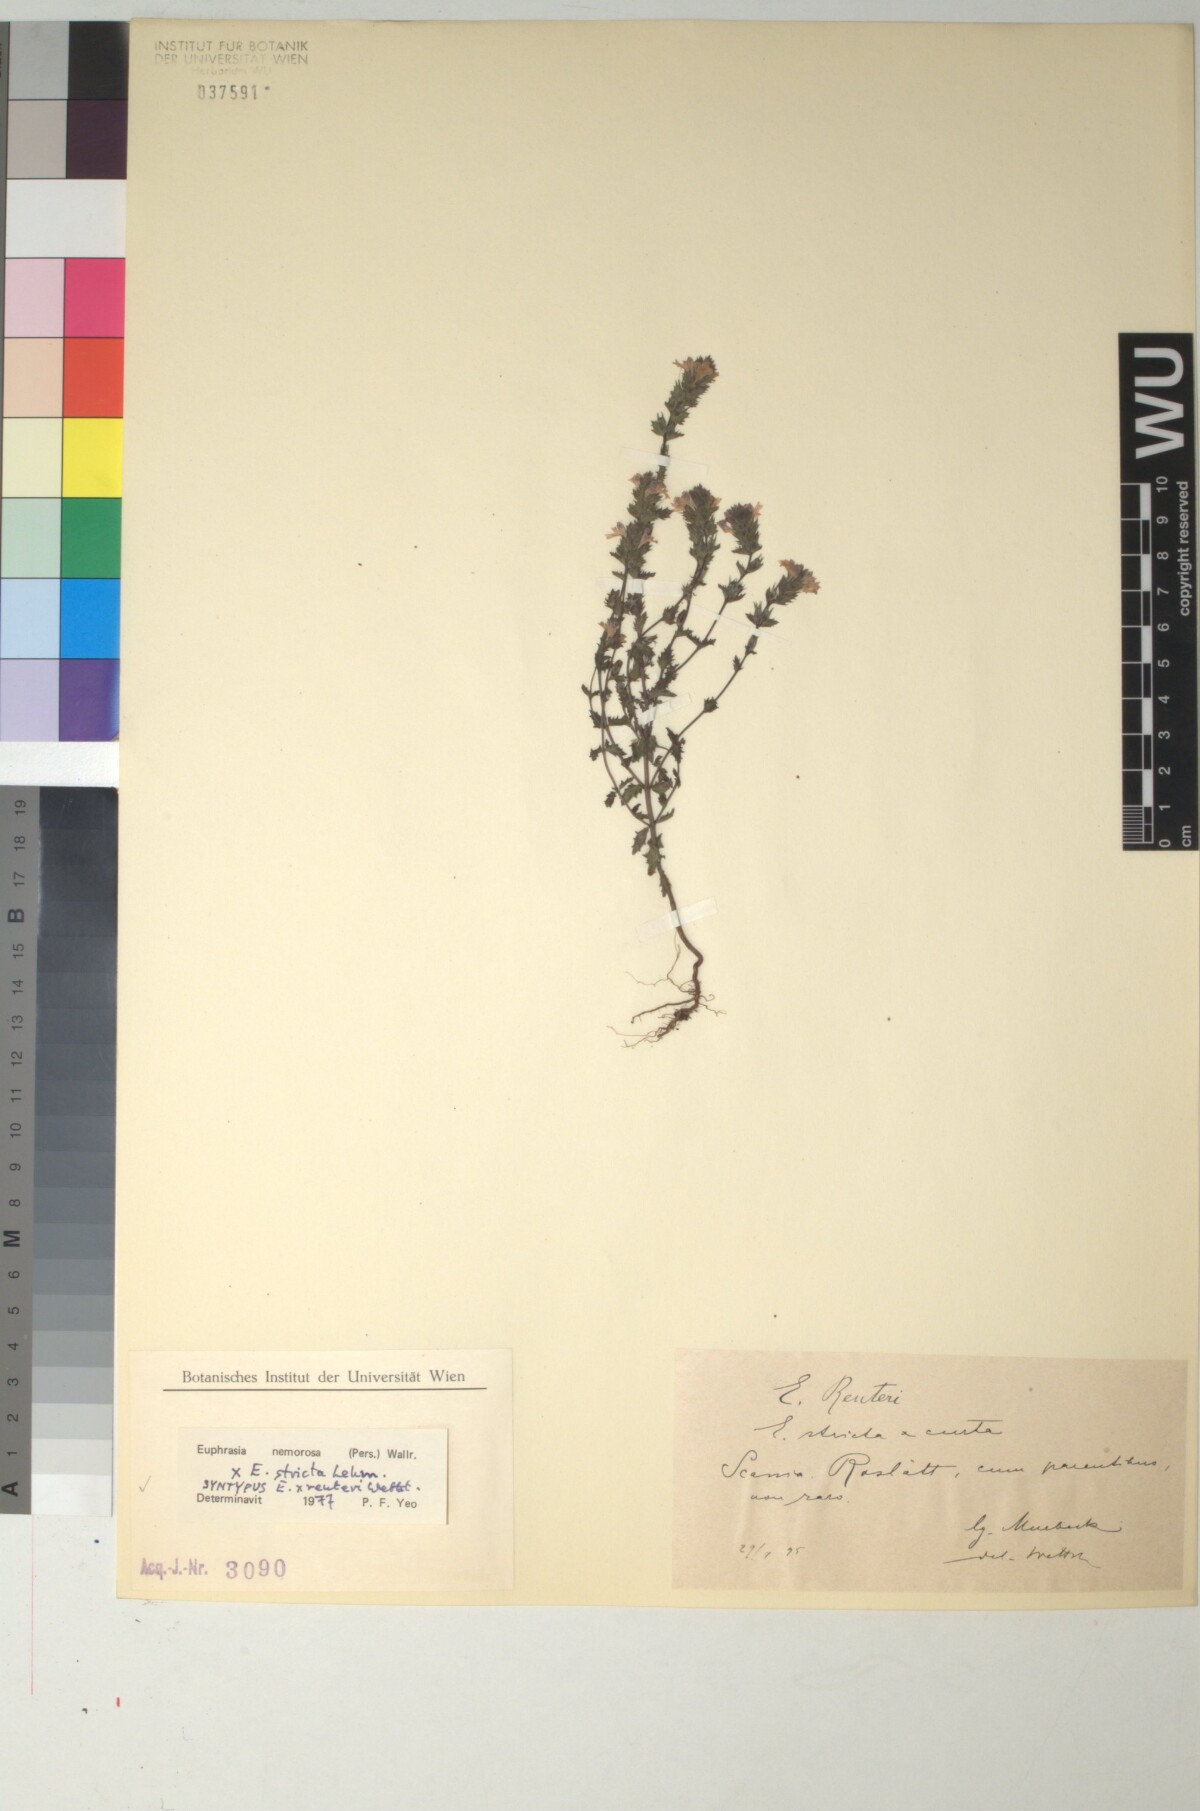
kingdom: Plantae
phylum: Tracheophyta
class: Magnoliopsida
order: Lamiales
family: Orobanchaceae
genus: Euphrasia
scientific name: Euphrasia reuteri
